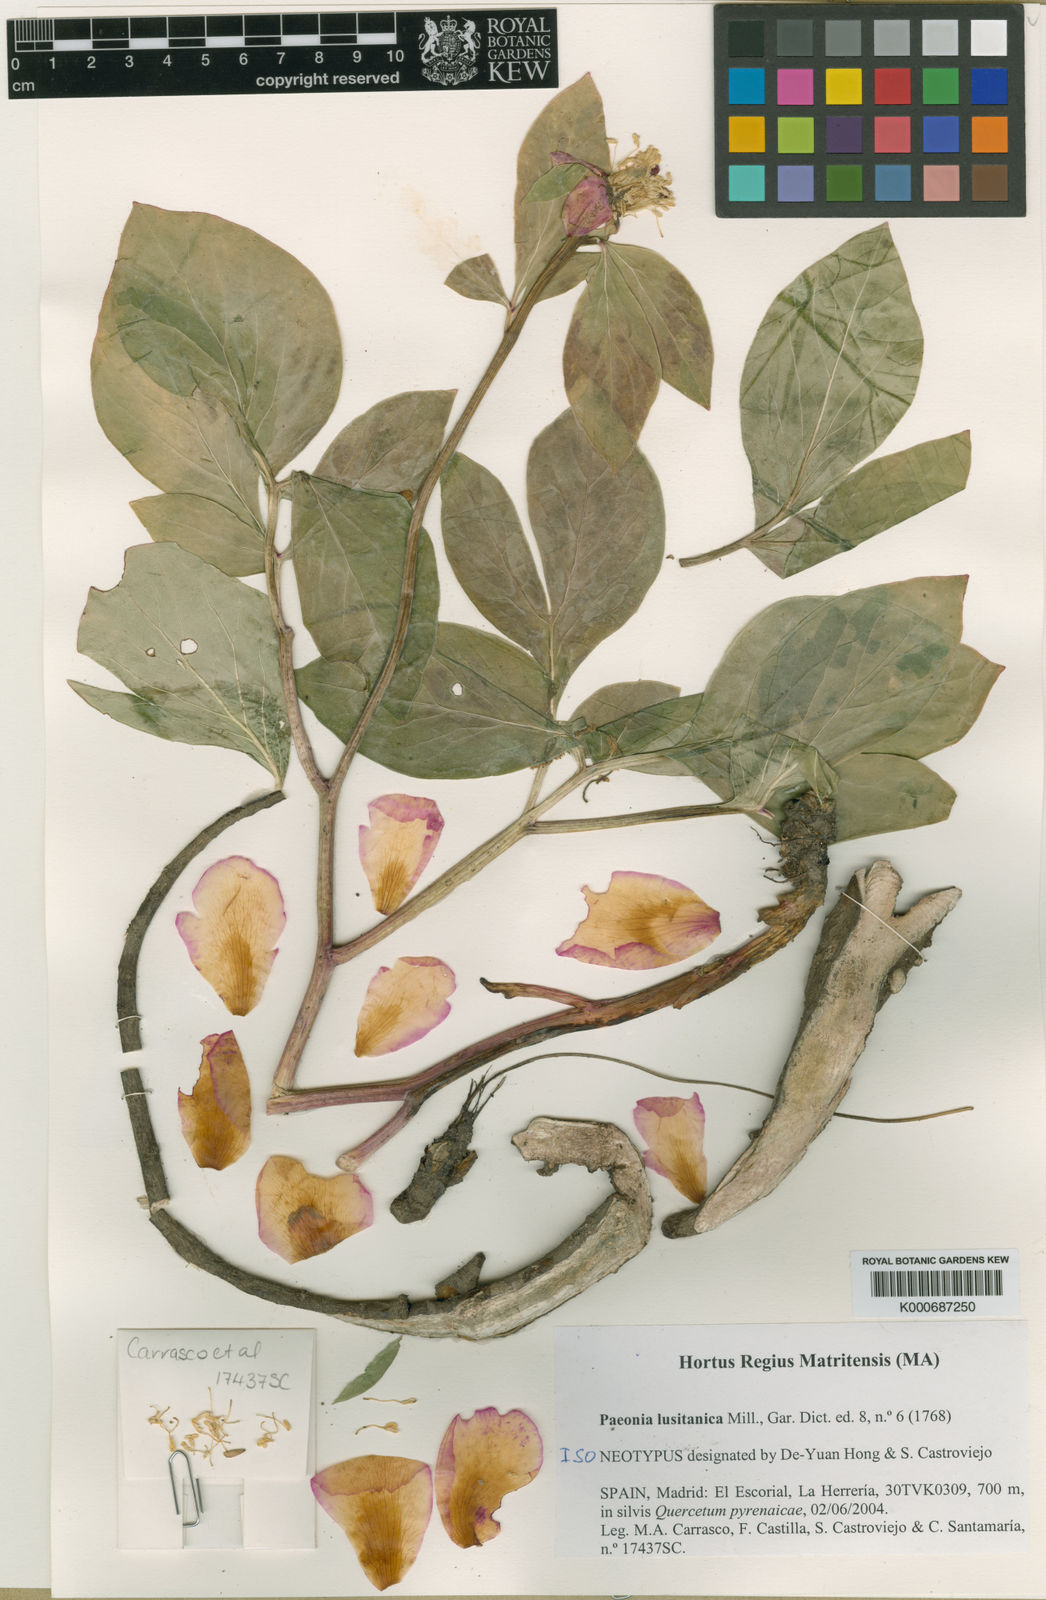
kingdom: Plantae
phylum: Tracheophyta
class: Magnoliopsida
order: Saxifragales
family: Paeoniaceae
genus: Paeonia
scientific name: Paeonia broteroi
